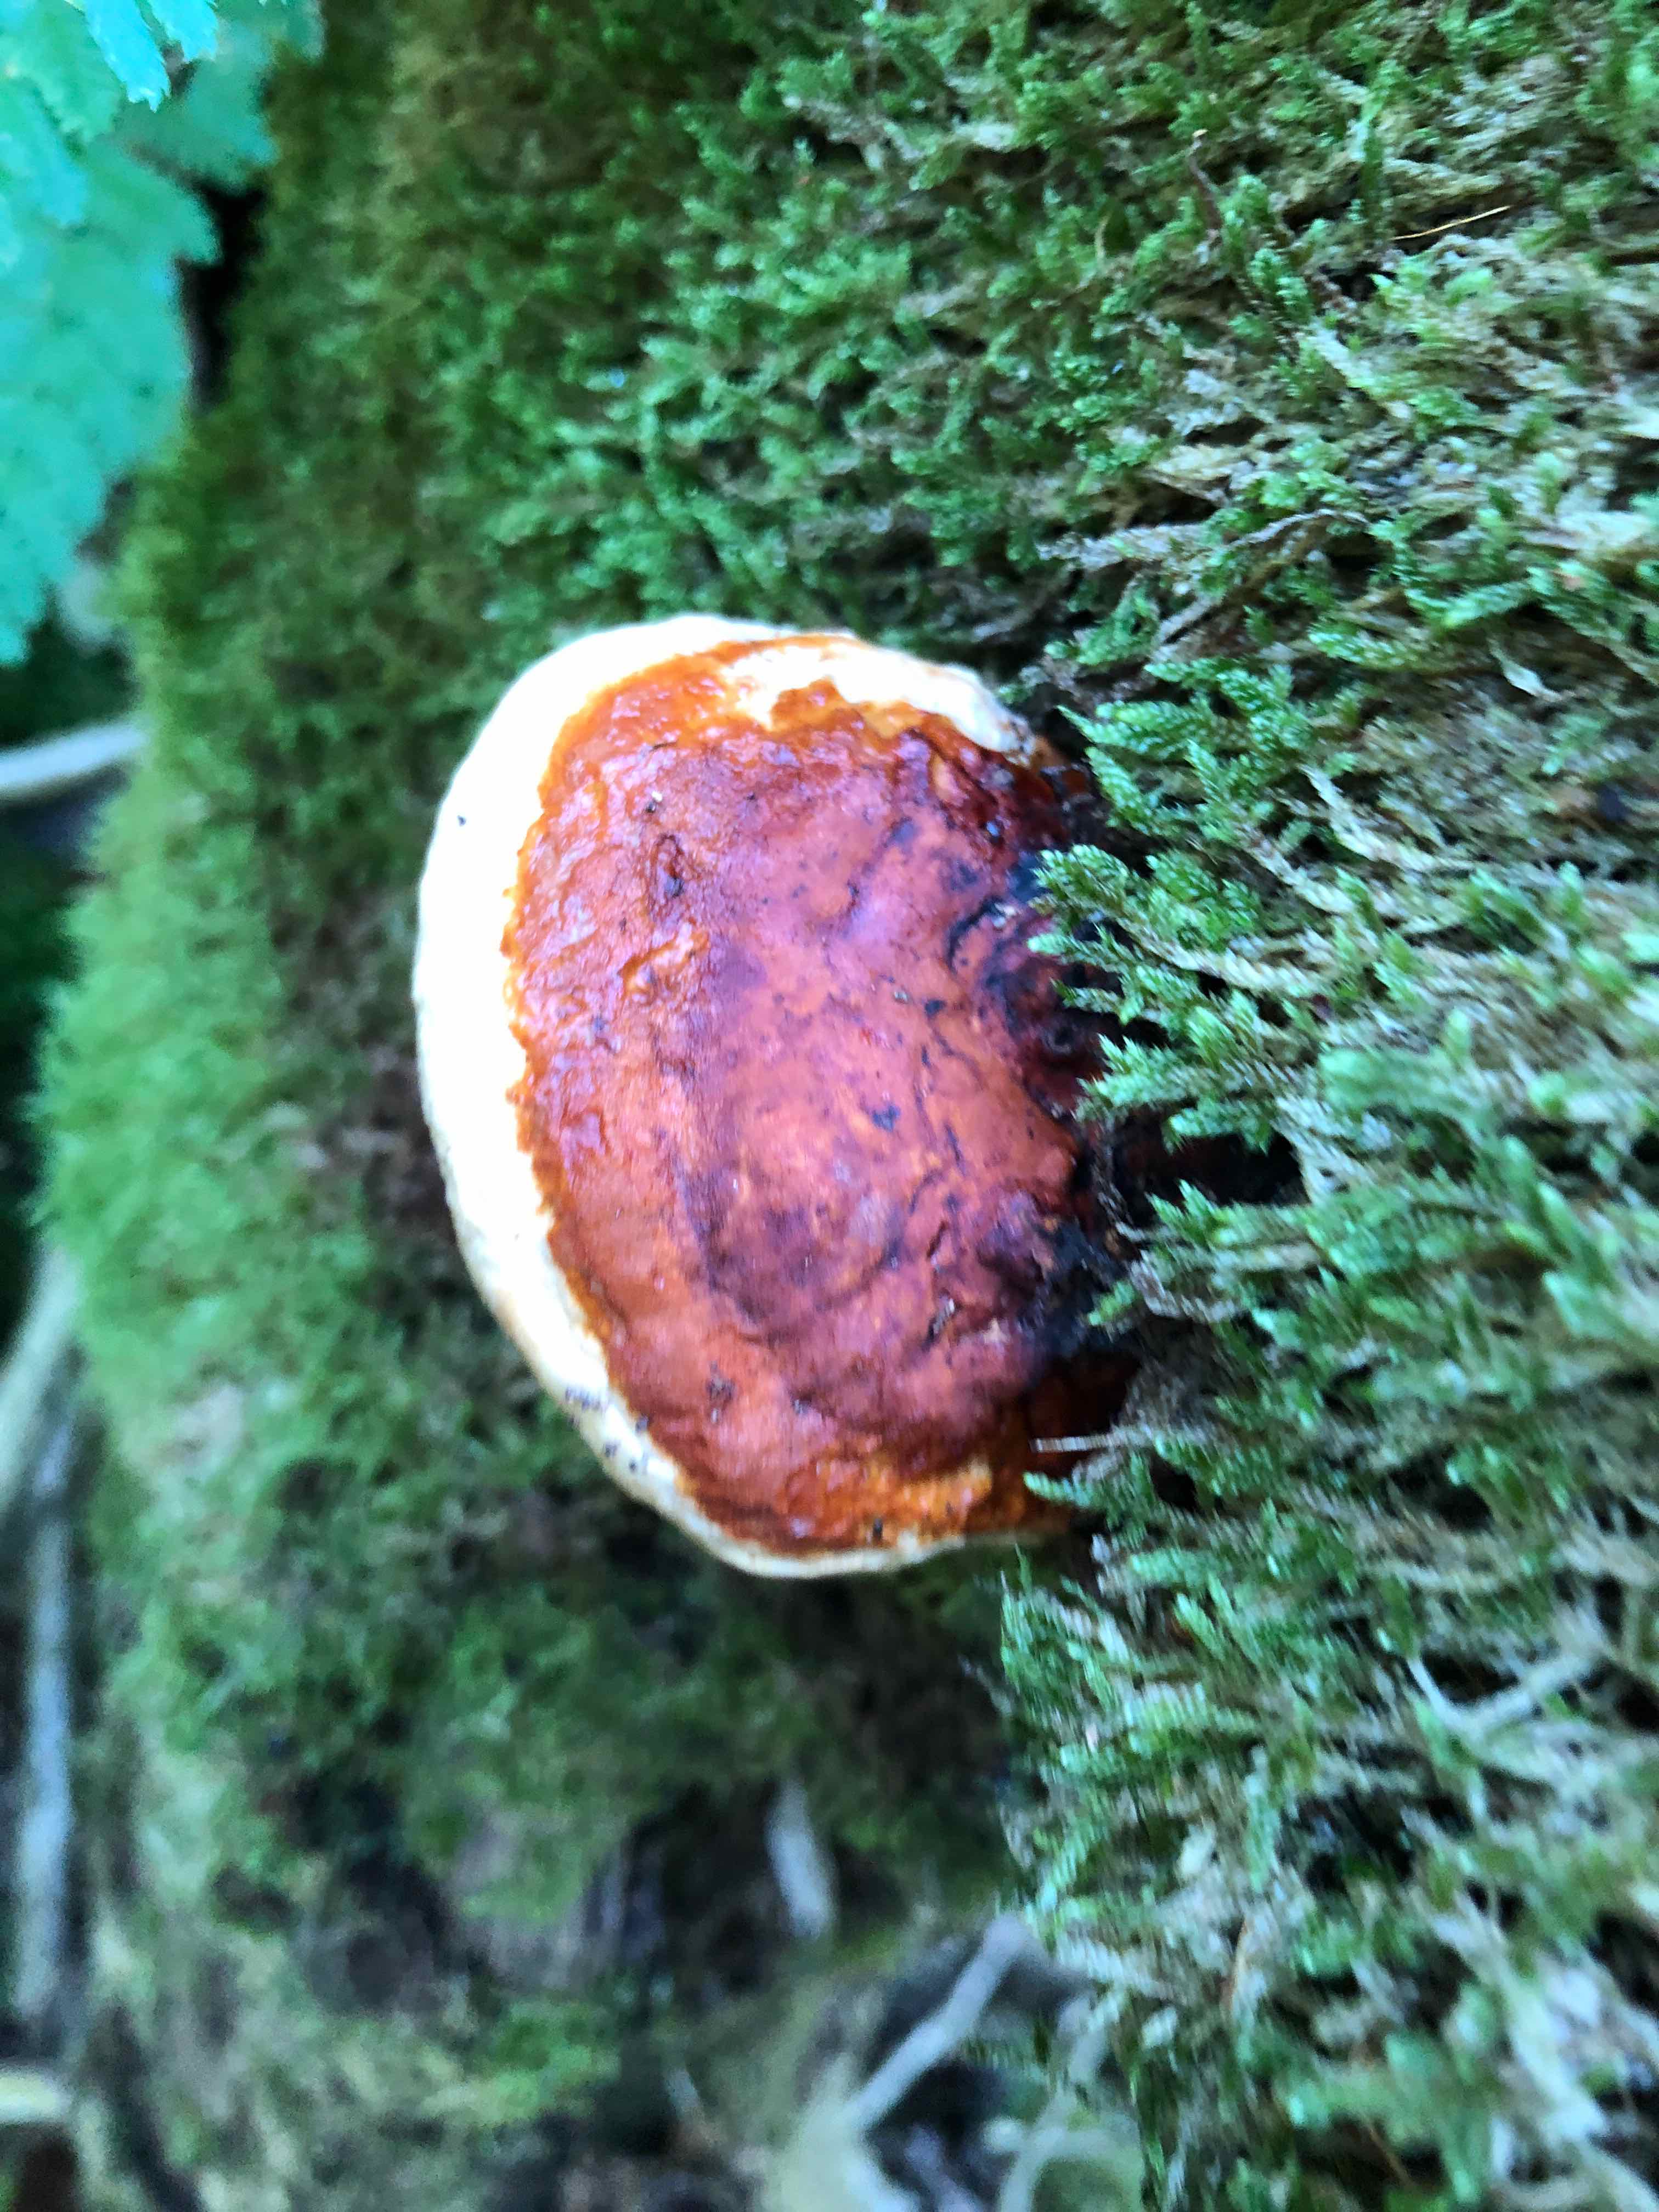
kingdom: Fungi
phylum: Basidiomycota
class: Agaricomycetes
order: Polyporales
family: Fomitopsidaceae
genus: Fomitopsis
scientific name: Fomitopsis pinicola
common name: randbæltet hovporesvamp
